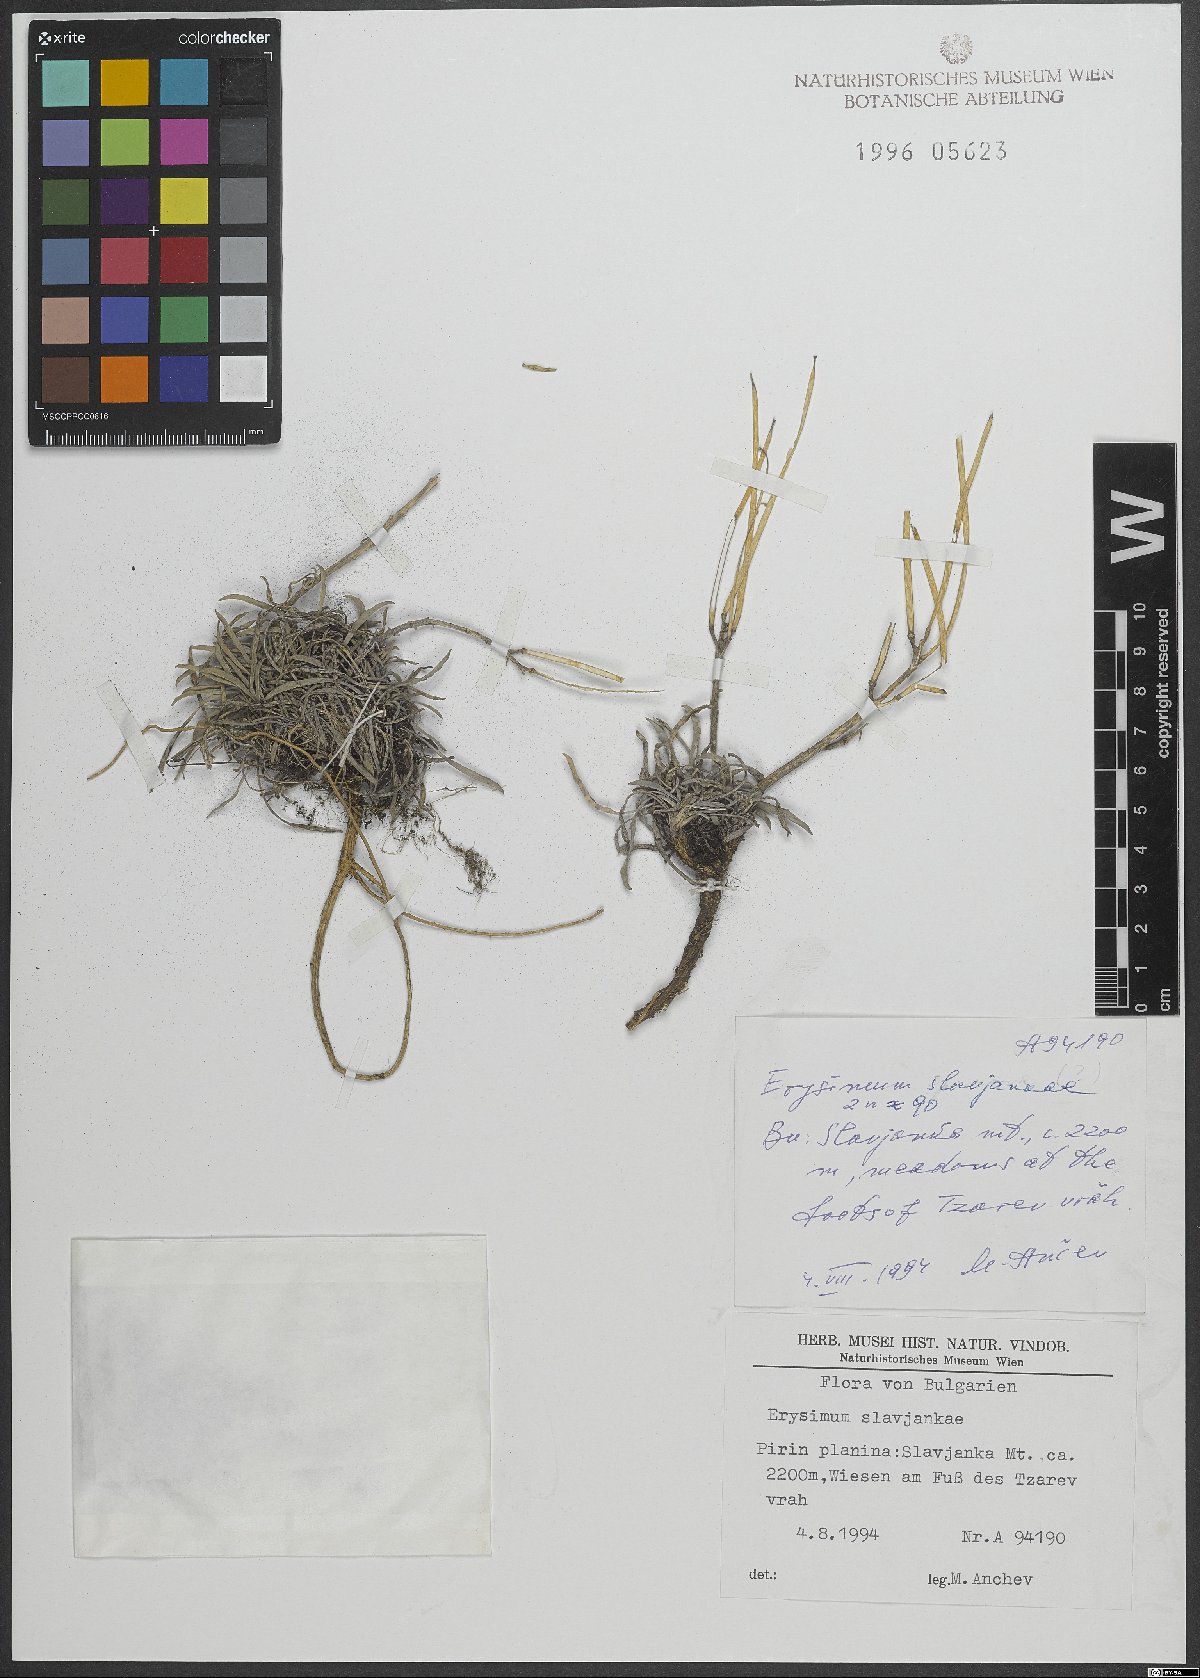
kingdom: Plantae
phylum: Tracheophyta
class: Magnoliopsida
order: Brassicales
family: Brassicaceae
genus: Erysimum
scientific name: Erysimum slavjankae
